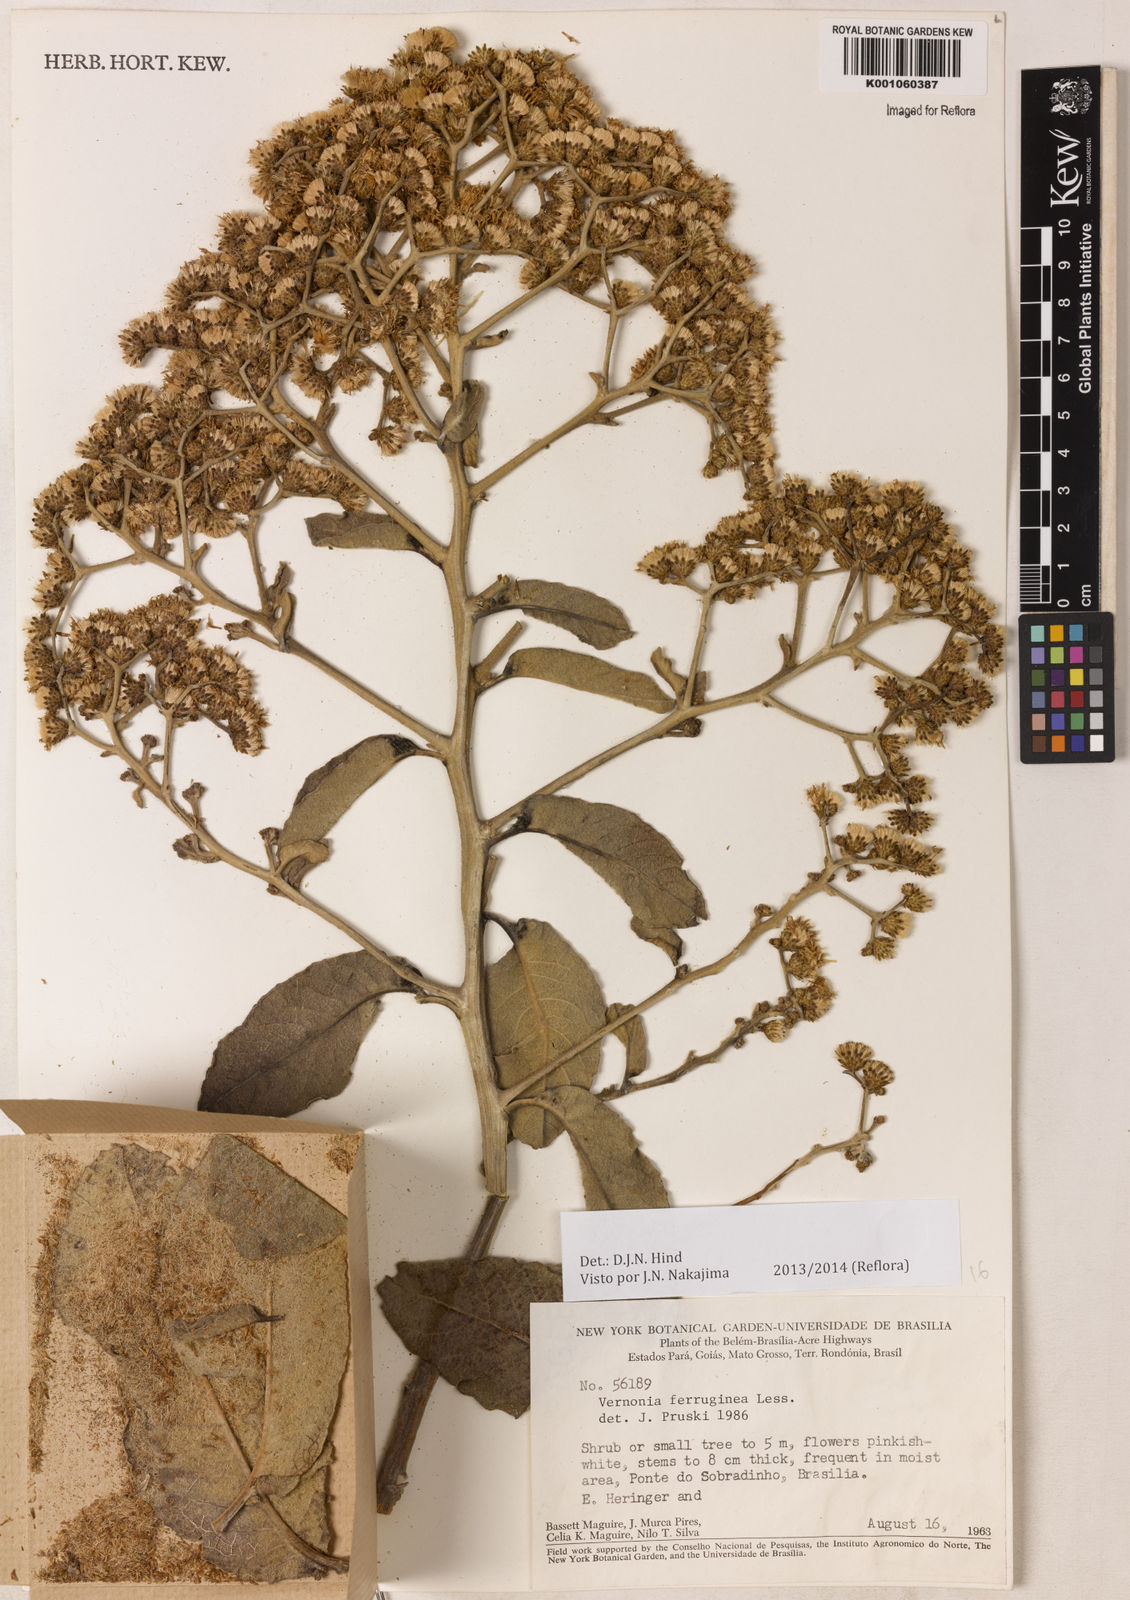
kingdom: Plantae
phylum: Tracheophyta
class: Magnoliopsida
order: Asterales
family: Asteraceae
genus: Vernonanthura
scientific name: Vernonanthura ferruginea
